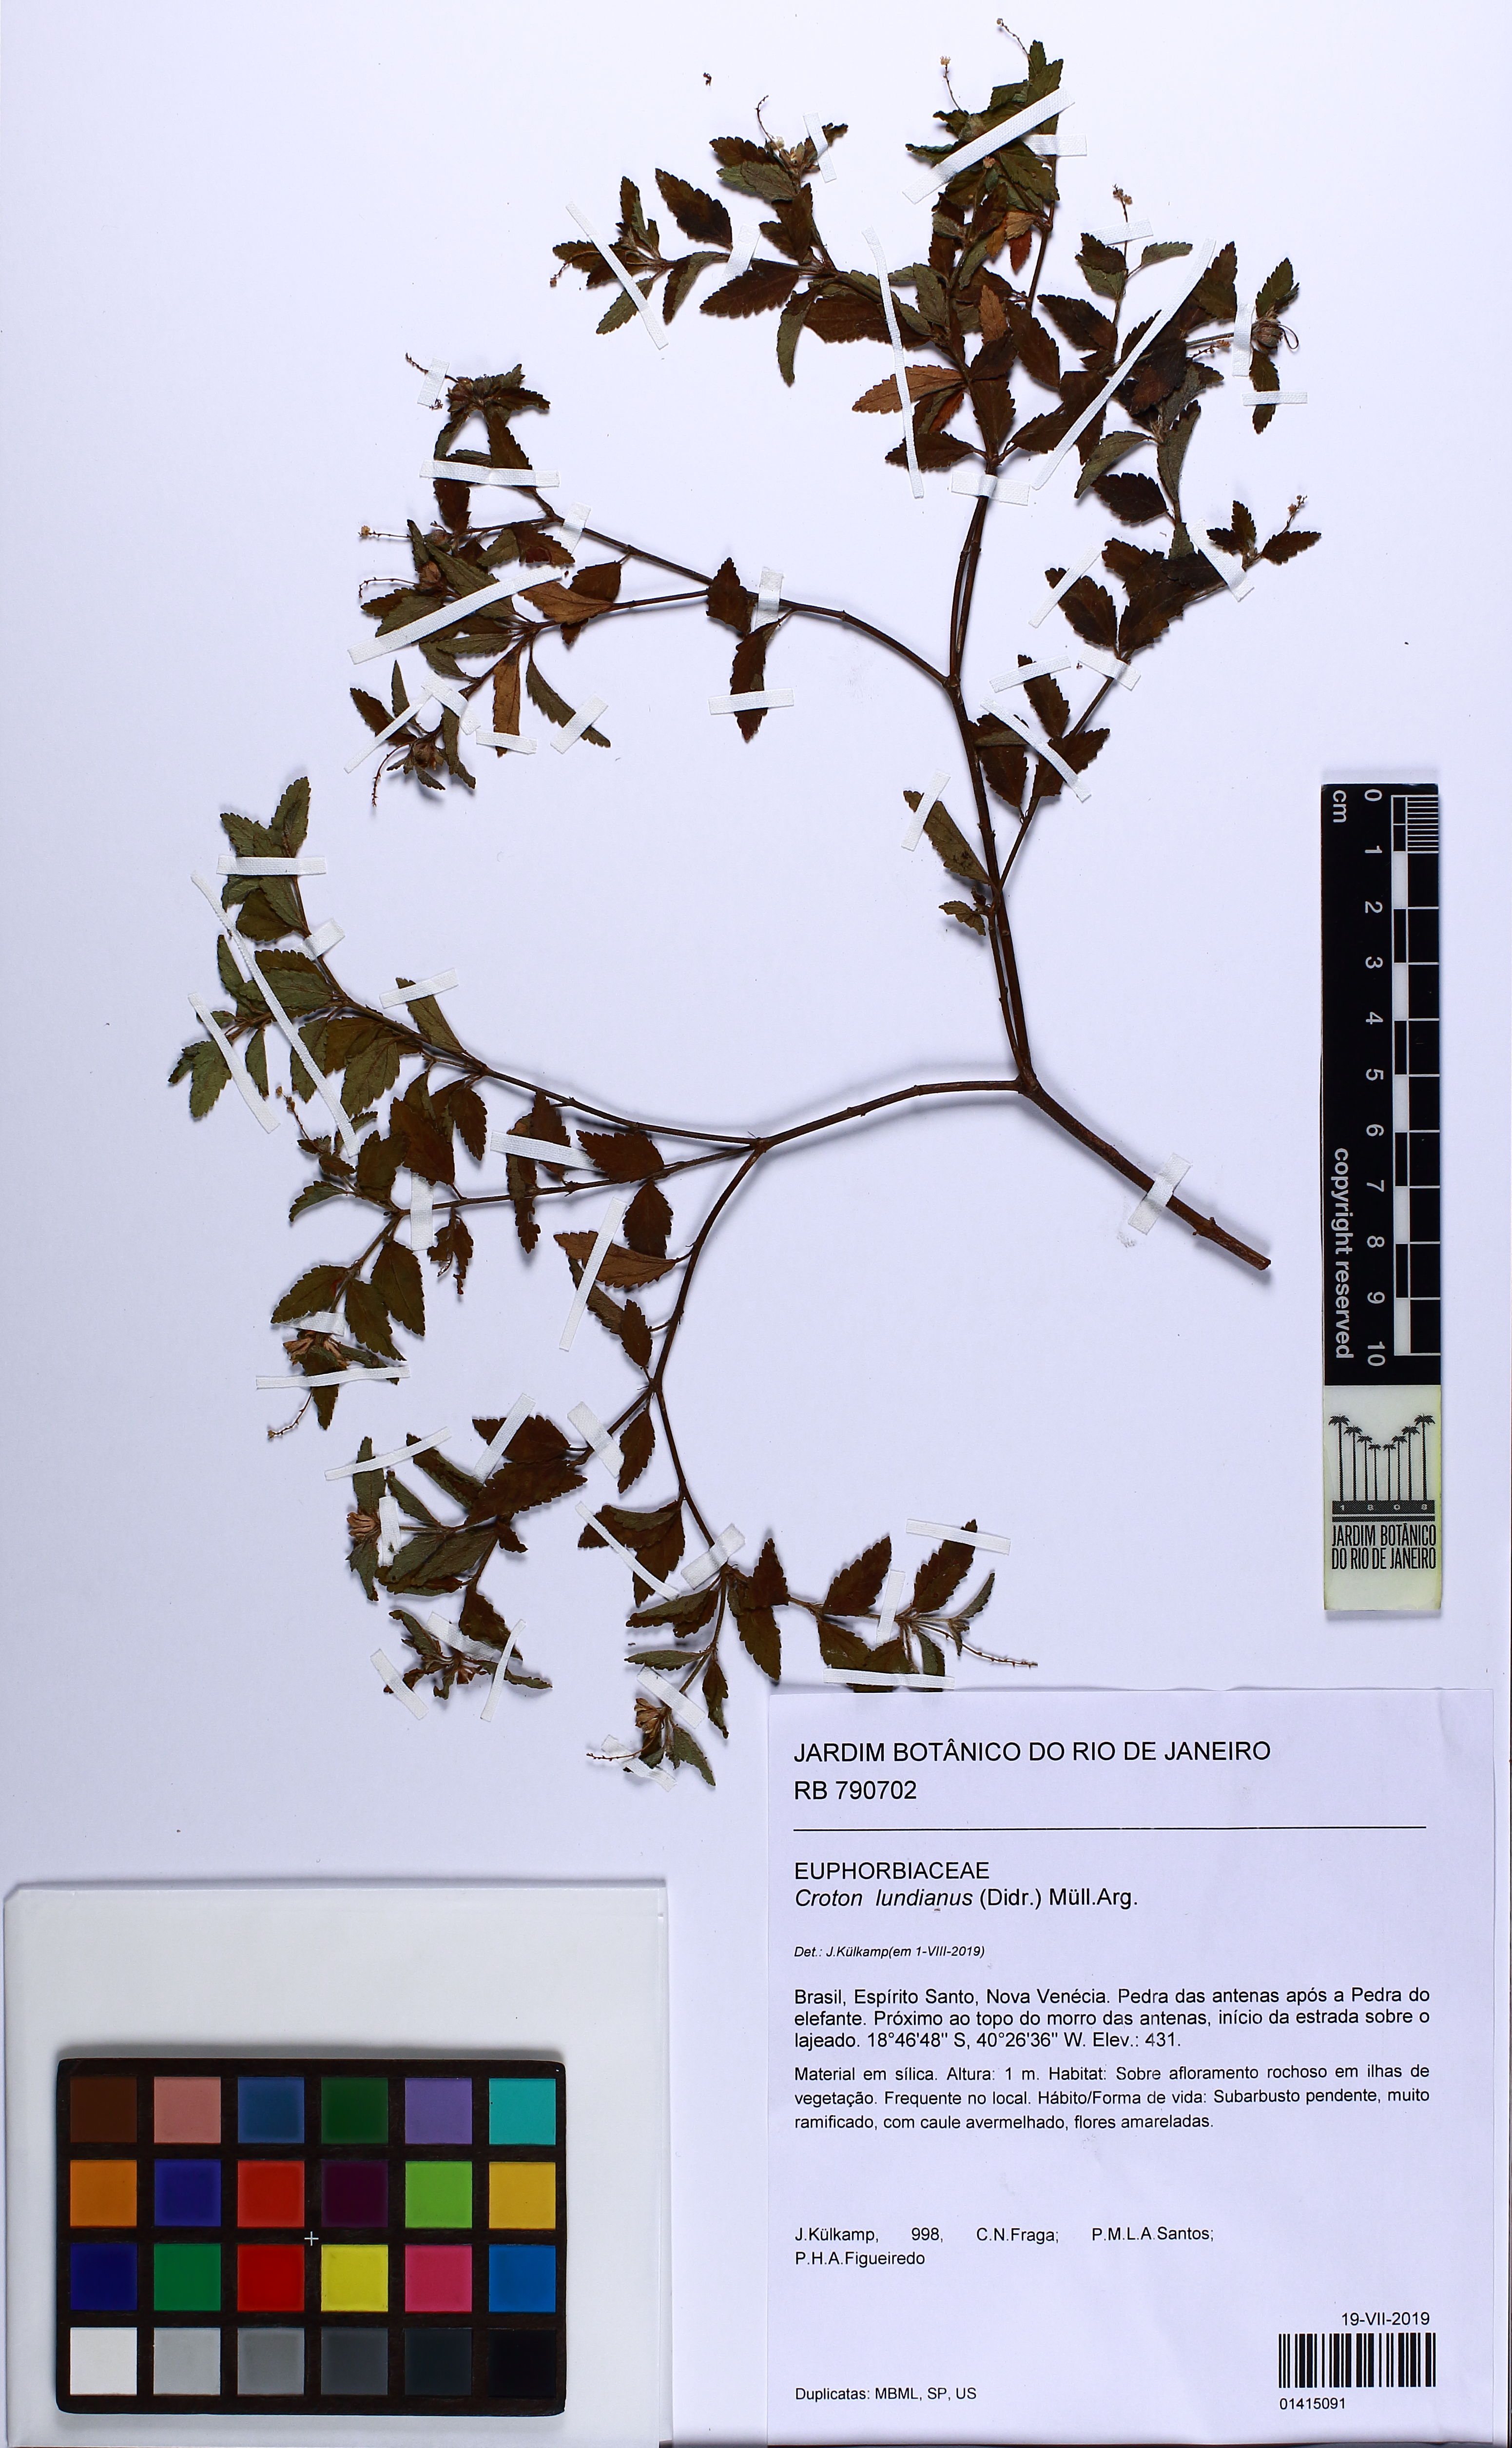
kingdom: Plantae
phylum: Tracheophyta
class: Magnoliopsida
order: Malpighiales
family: Euphorbiaceae
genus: Croton
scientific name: Croton lundianus
